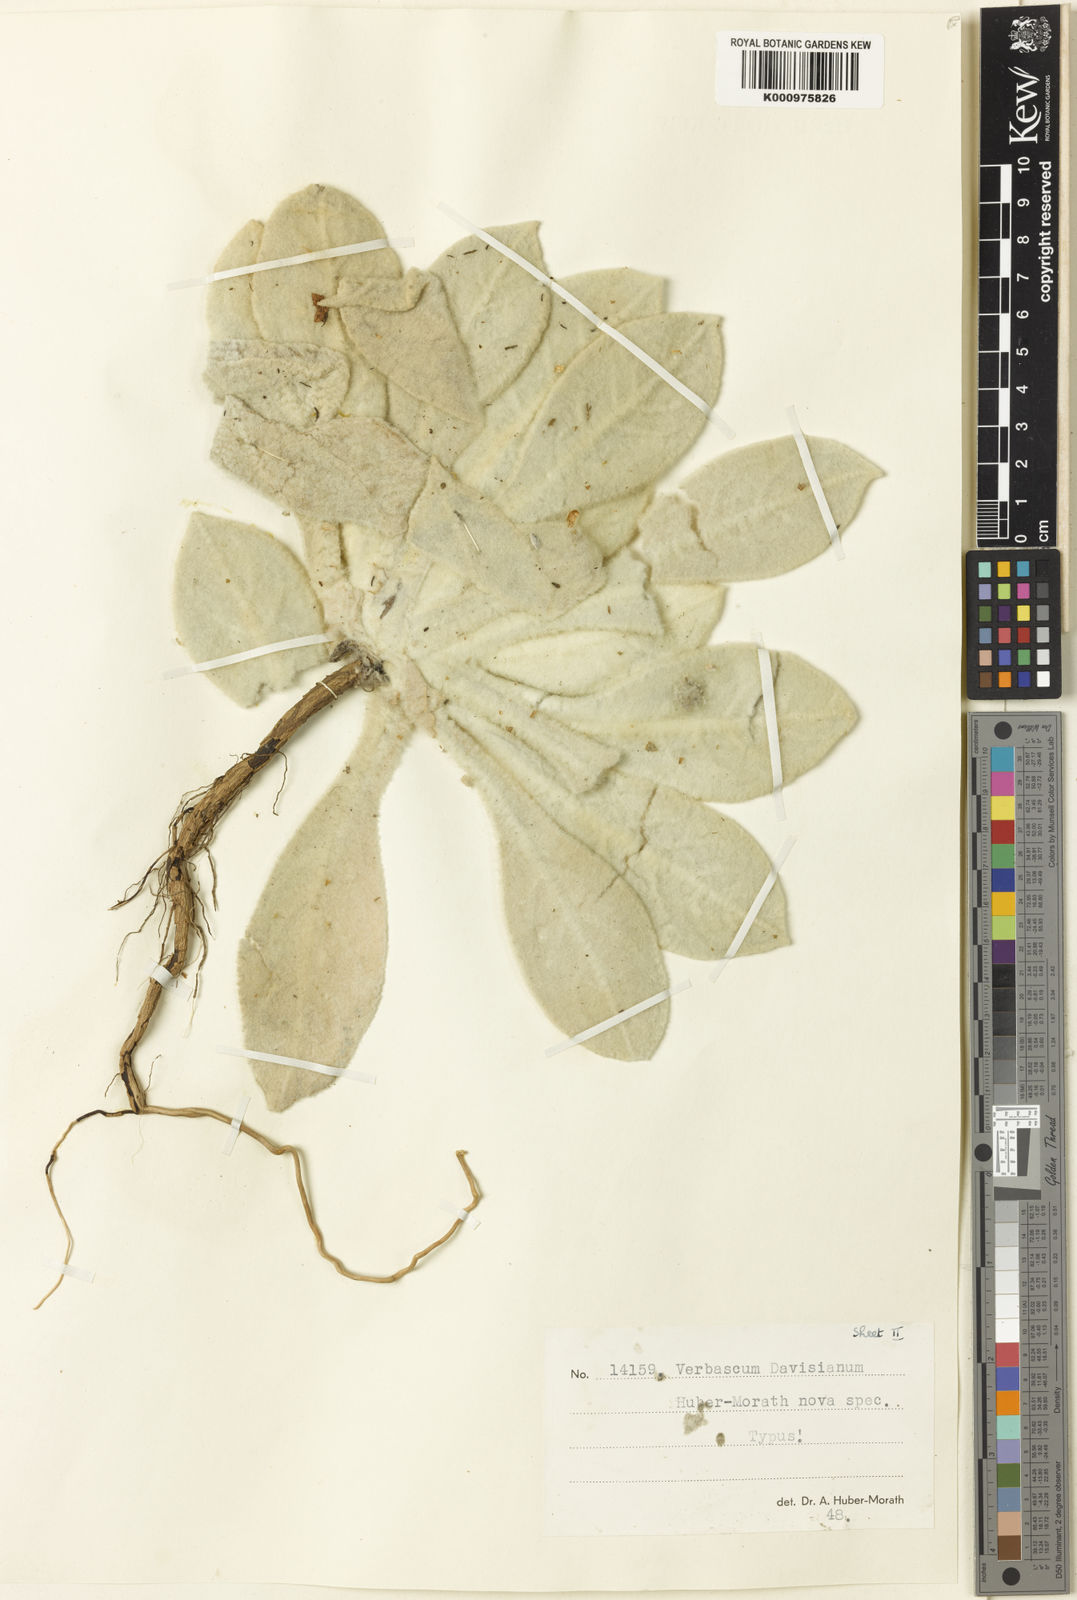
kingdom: Plantae
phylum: Tracheophyta
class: Magnoliopsida
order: Lamiales
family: Scrophulariaceae
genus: Verbascum
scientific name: Verbascum davisianum
